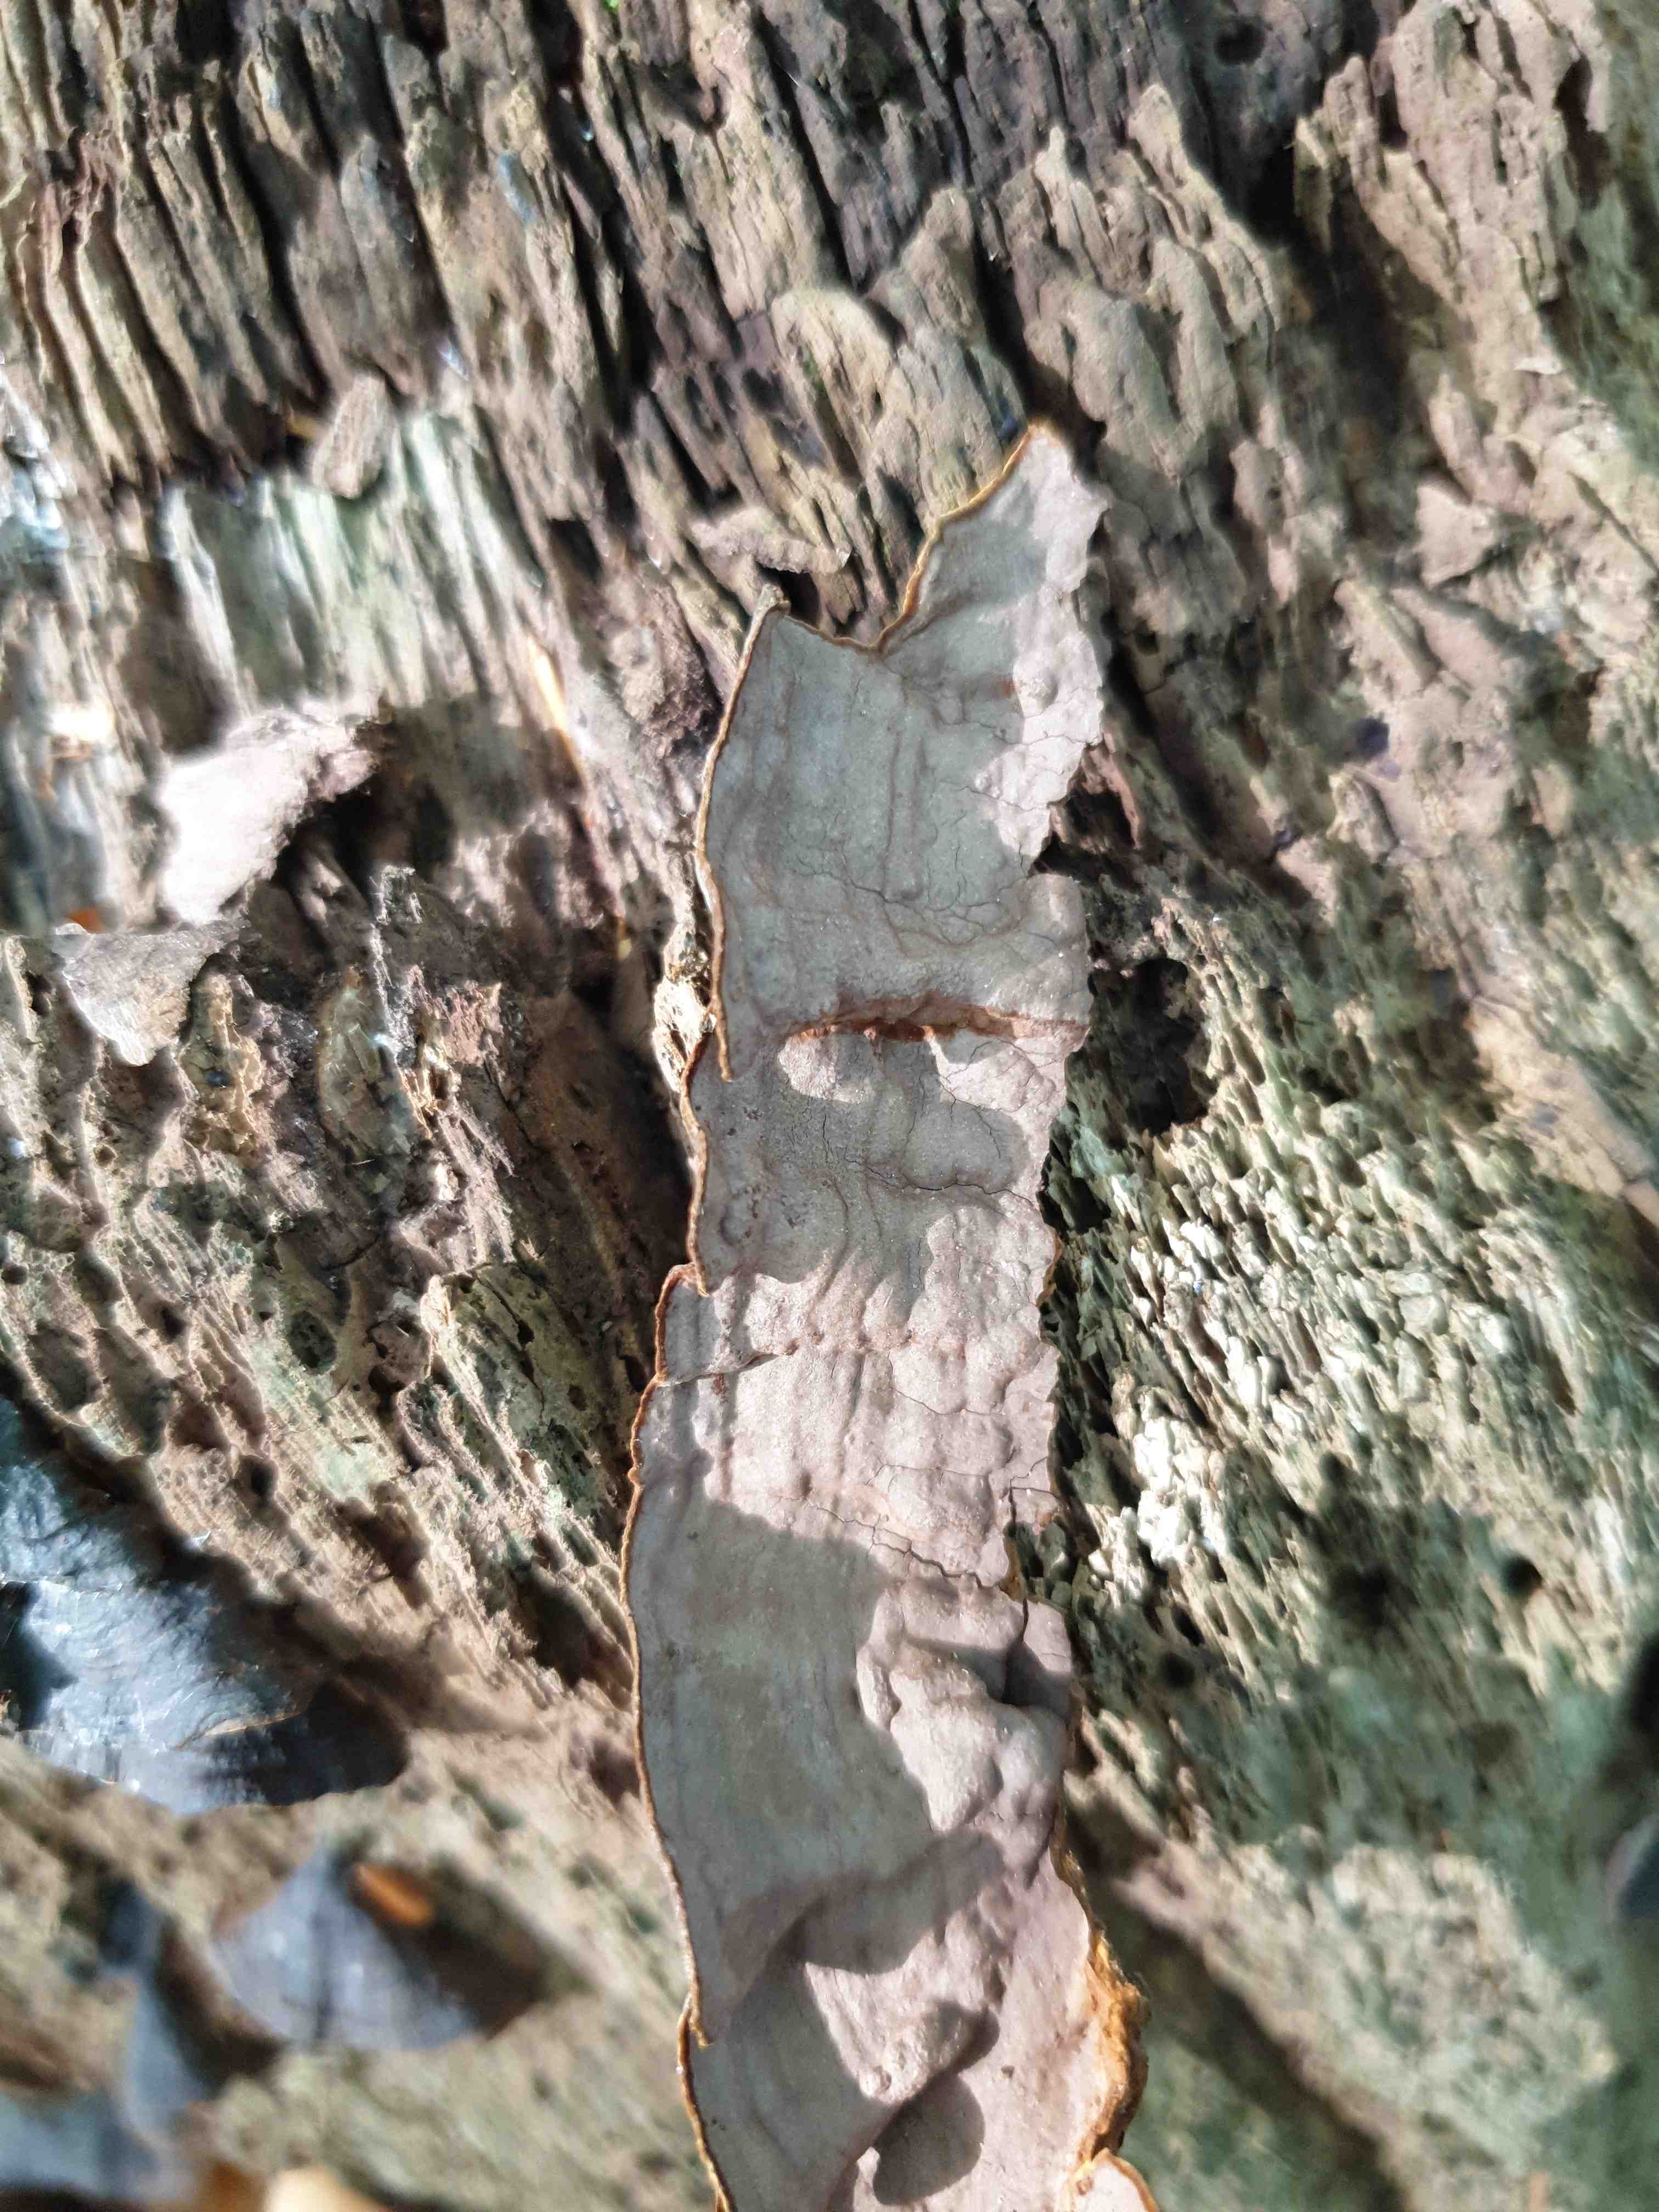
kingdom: Fungi
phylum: Basidiomycota
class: Agaricomycetes
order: Hymenochaetales
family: Hymenochaetaceae
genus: Hymenochaete
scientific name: Hymenochaete rubiginosa
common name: stiv ruslædersvamp
